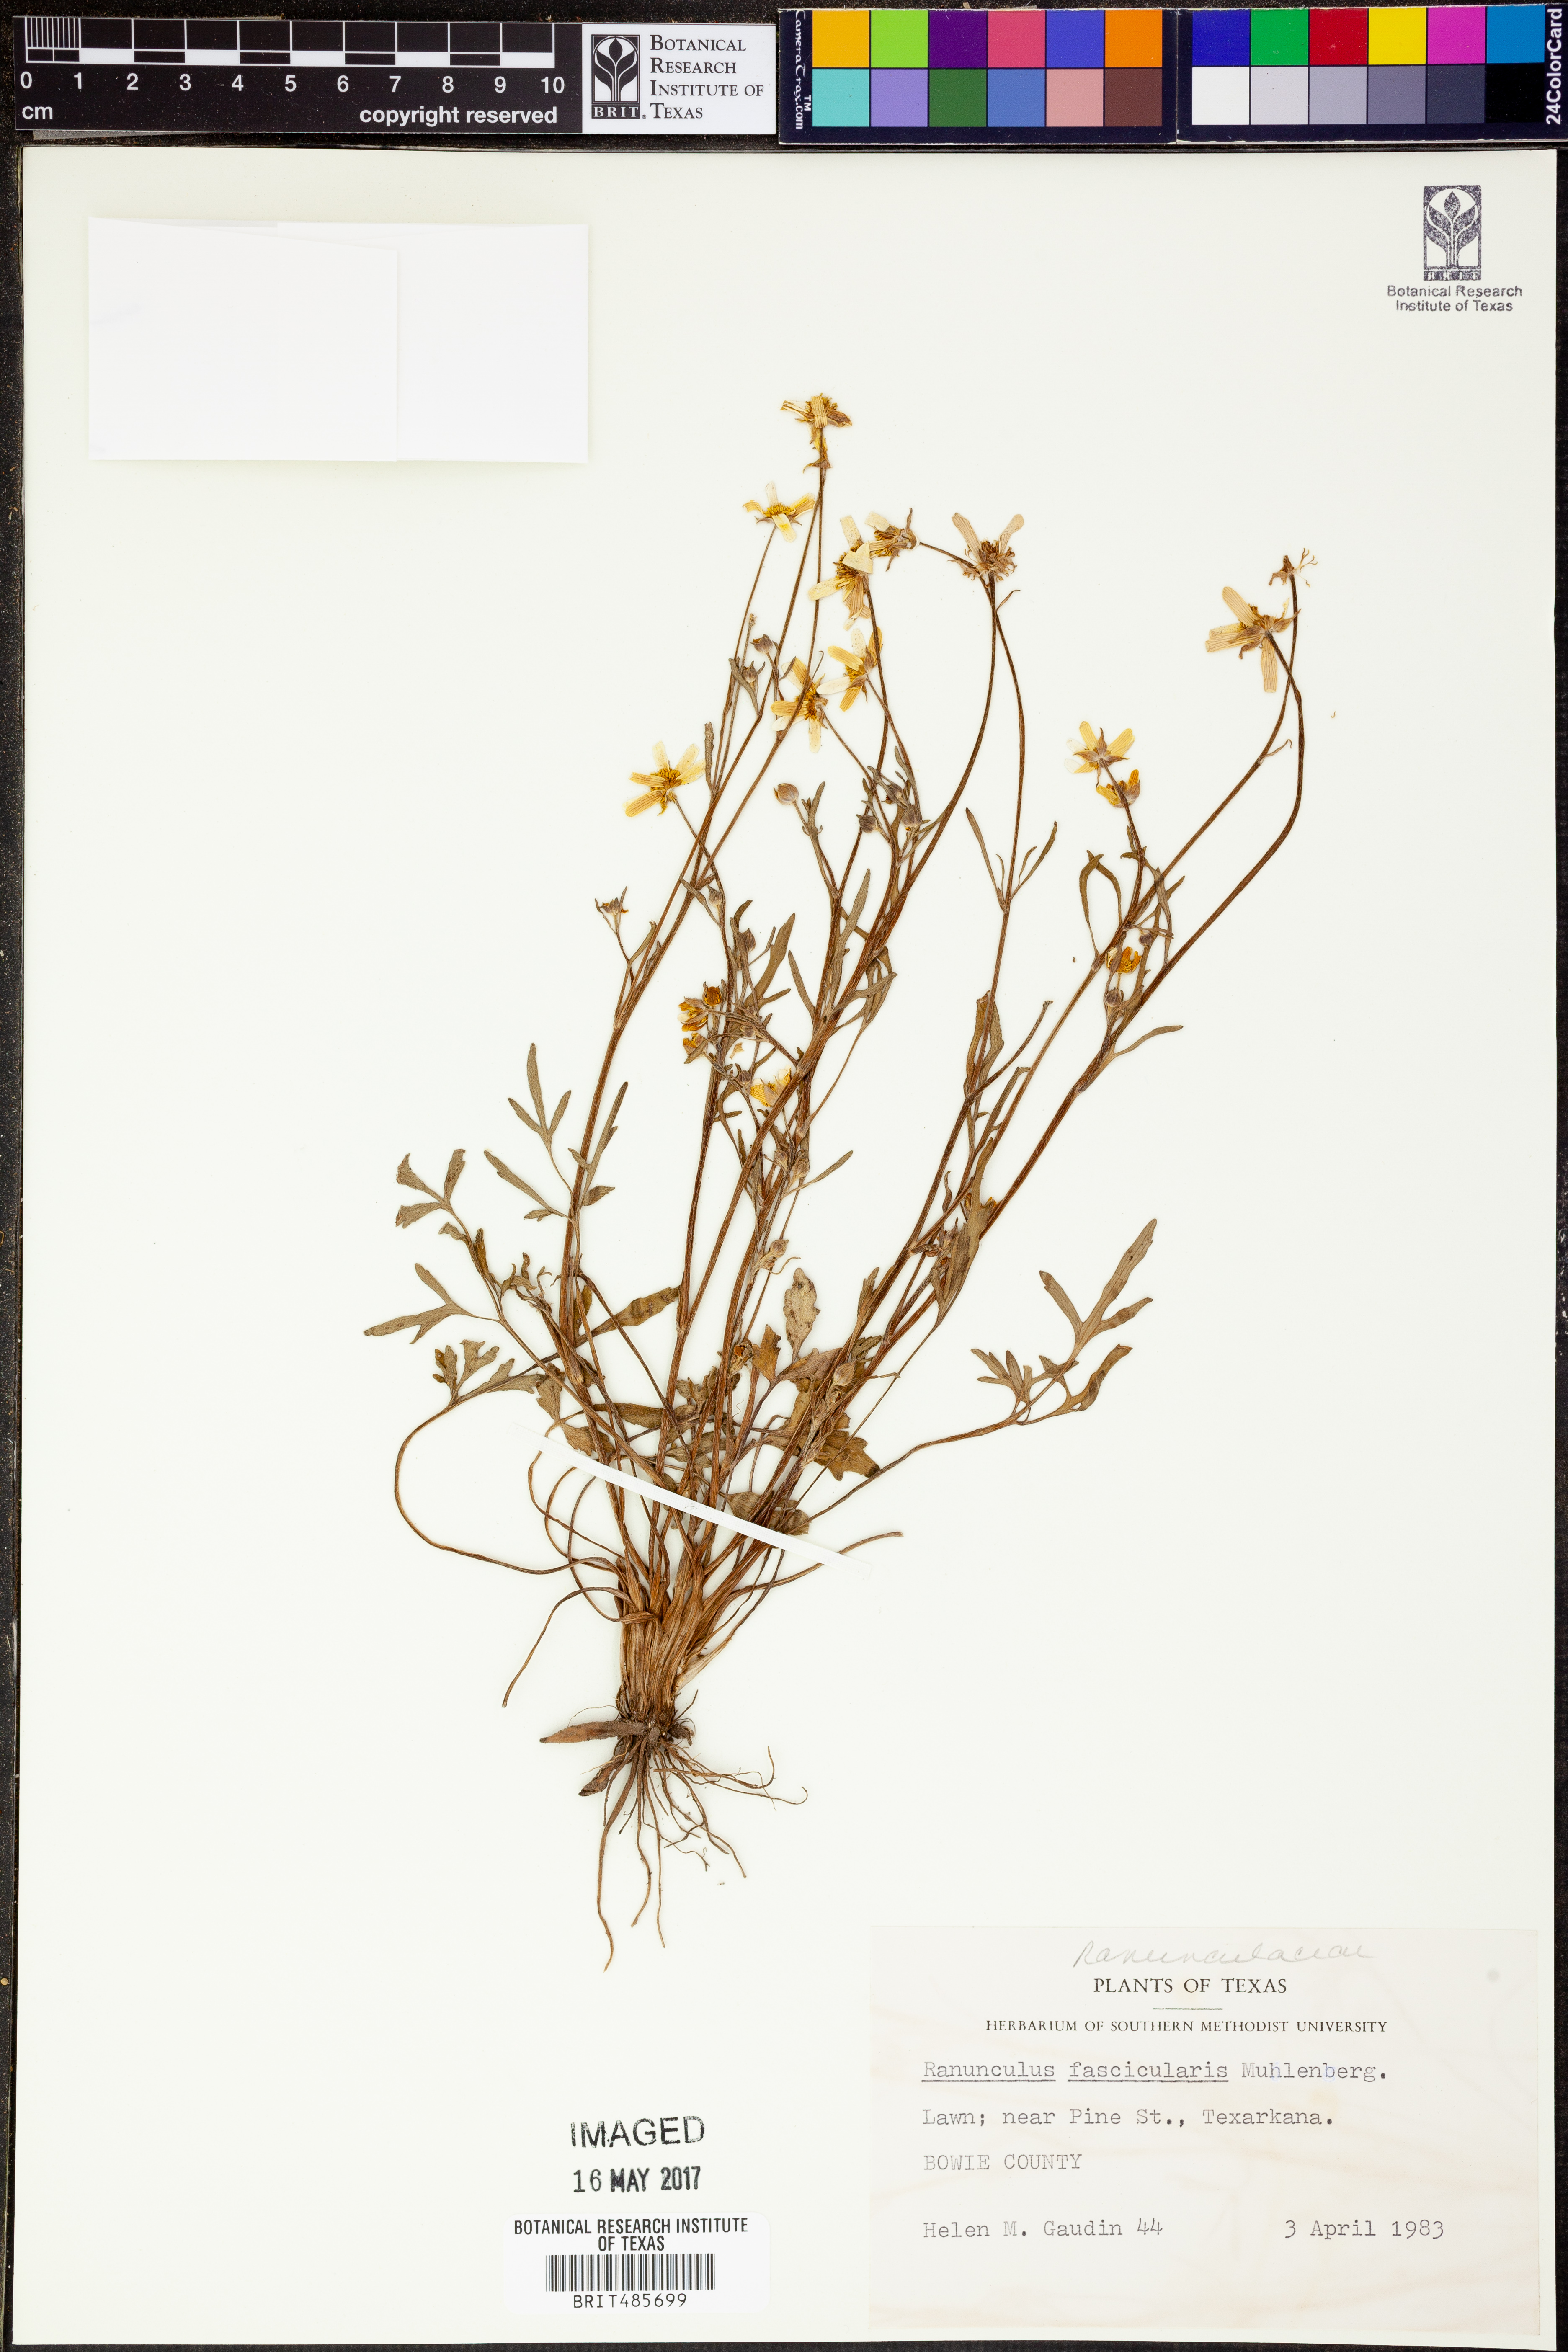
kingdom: Plantae
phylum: Tracheophyta
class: Magnoliopsida
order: Ranunculales
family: Ranunculaceae
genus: Ranunculus
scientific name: Ranunculus fascicularis
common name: Early buttercup
